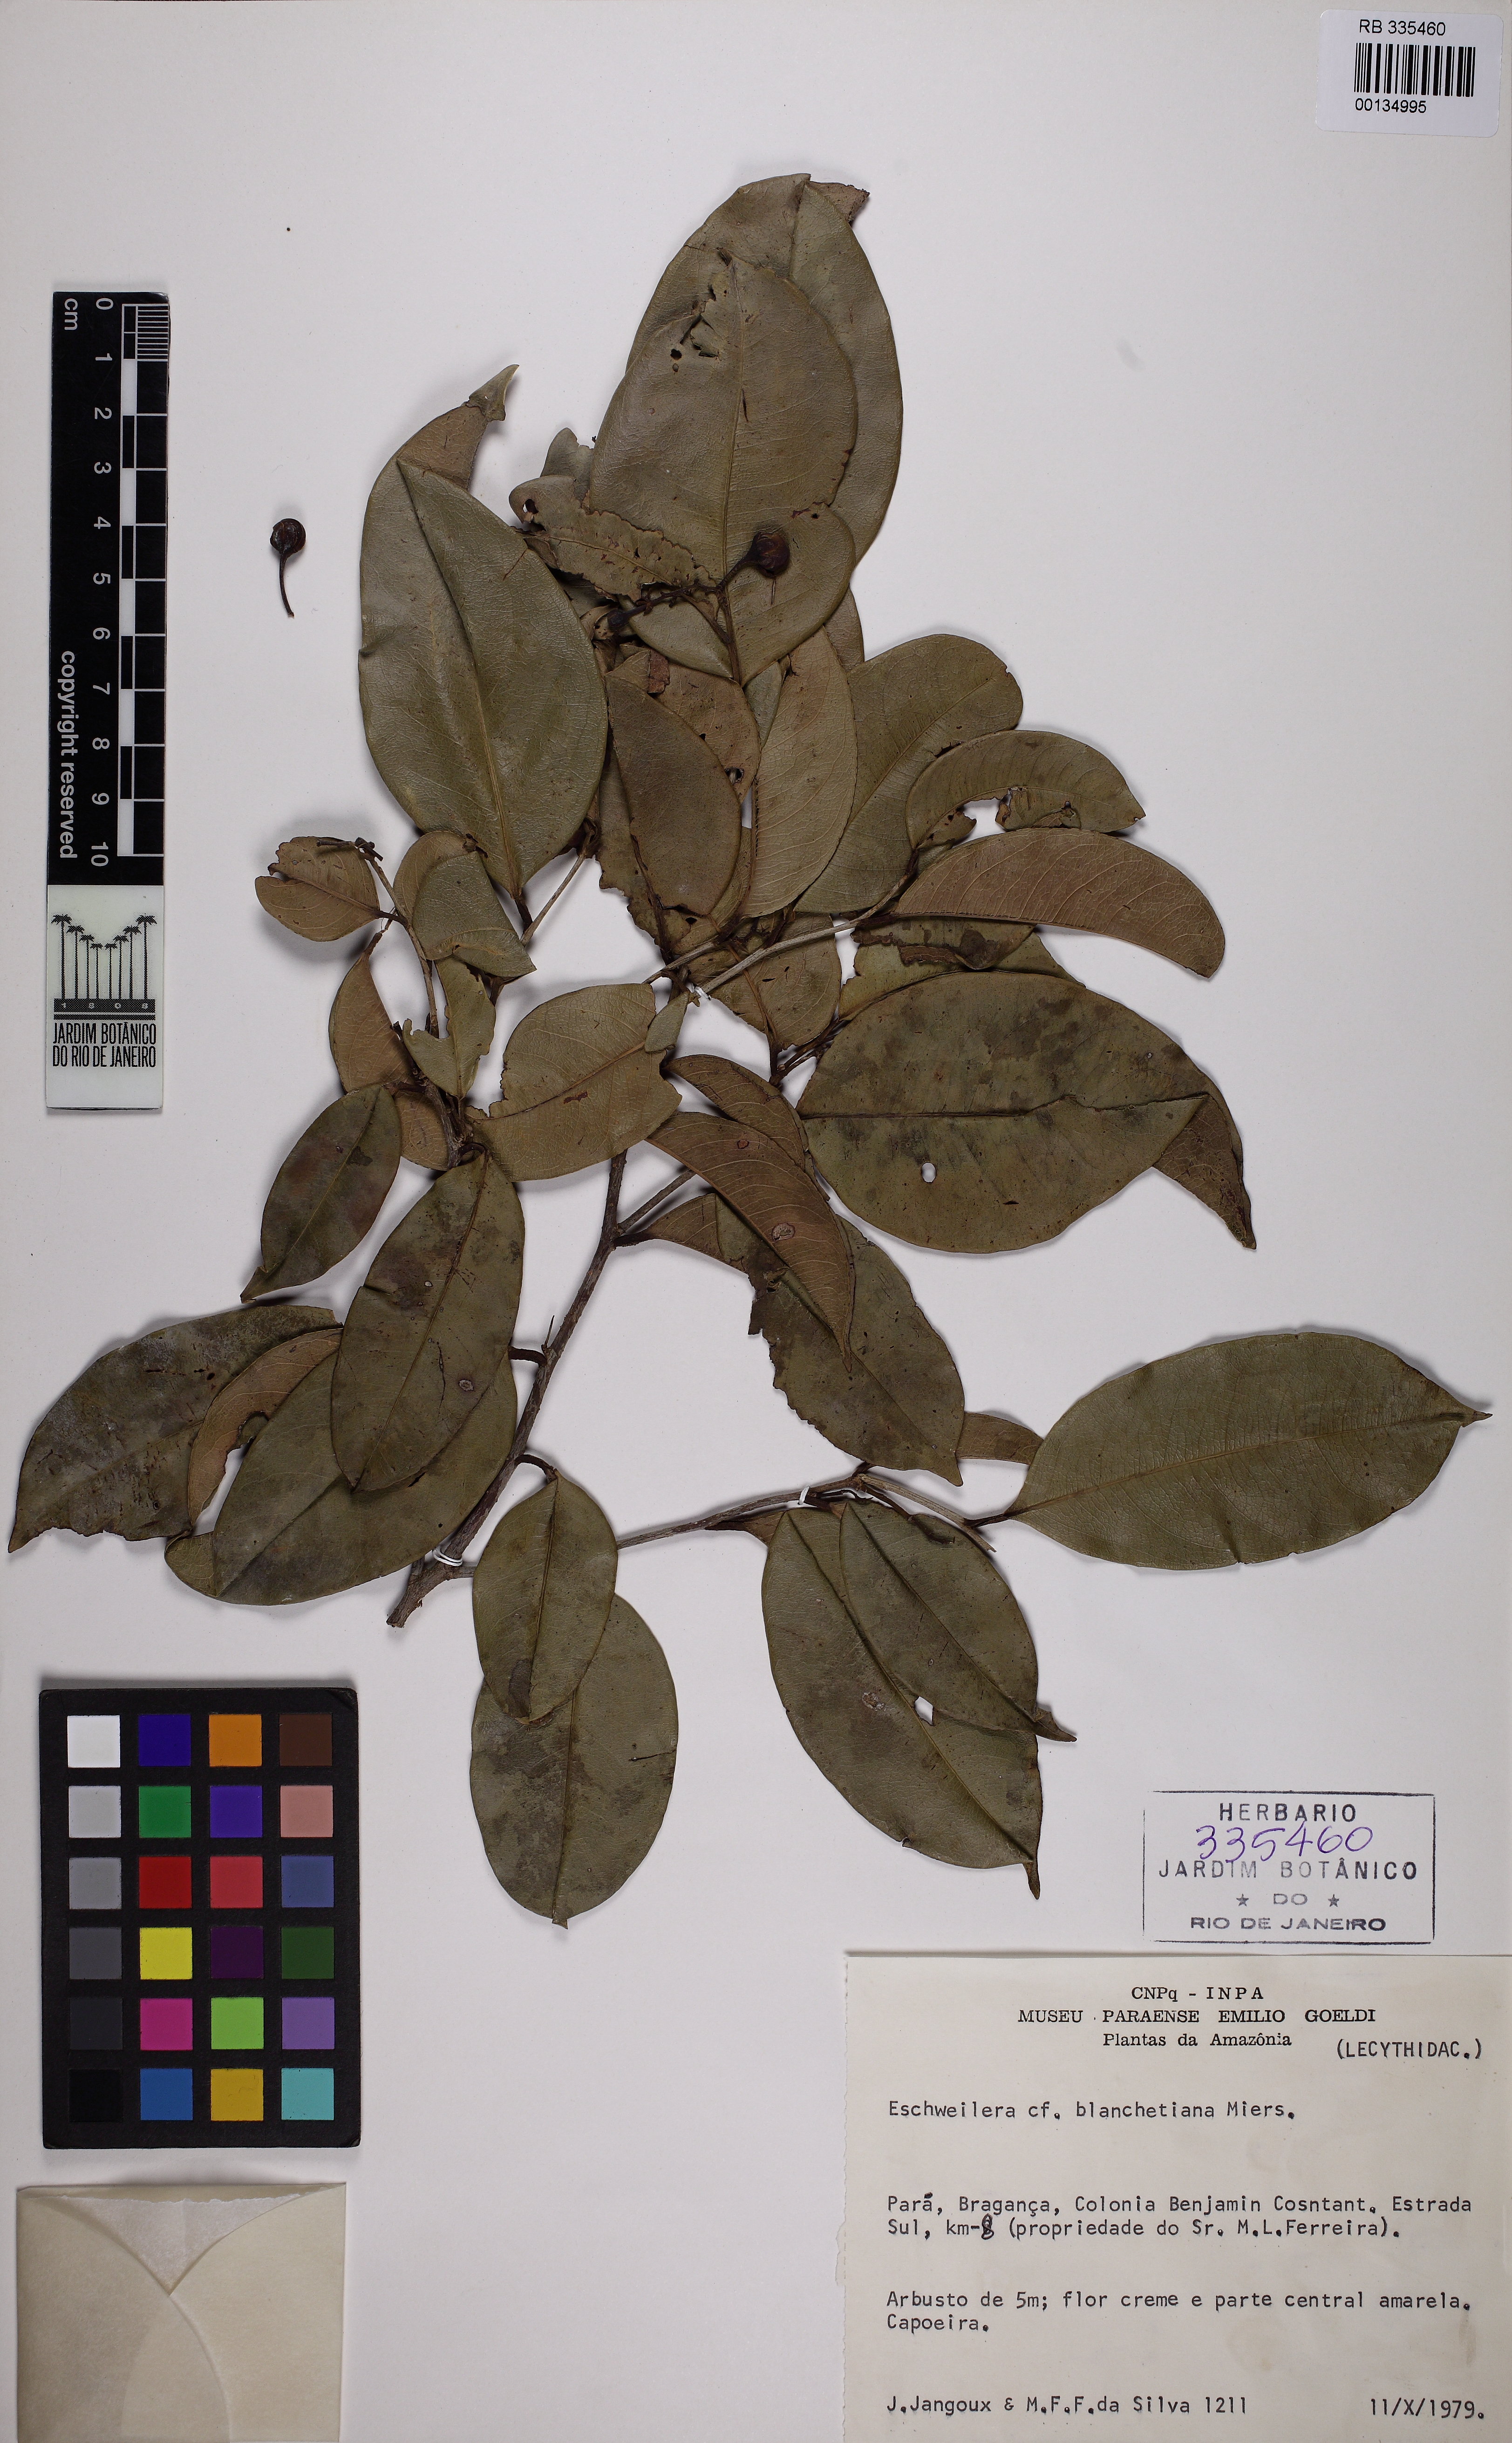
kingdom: Plantae
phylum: Tracheophyta
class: Magnoliopsida
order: Ericales
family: Lecythidaceae
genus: Eschweilera
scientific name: Eschweilera ovata
